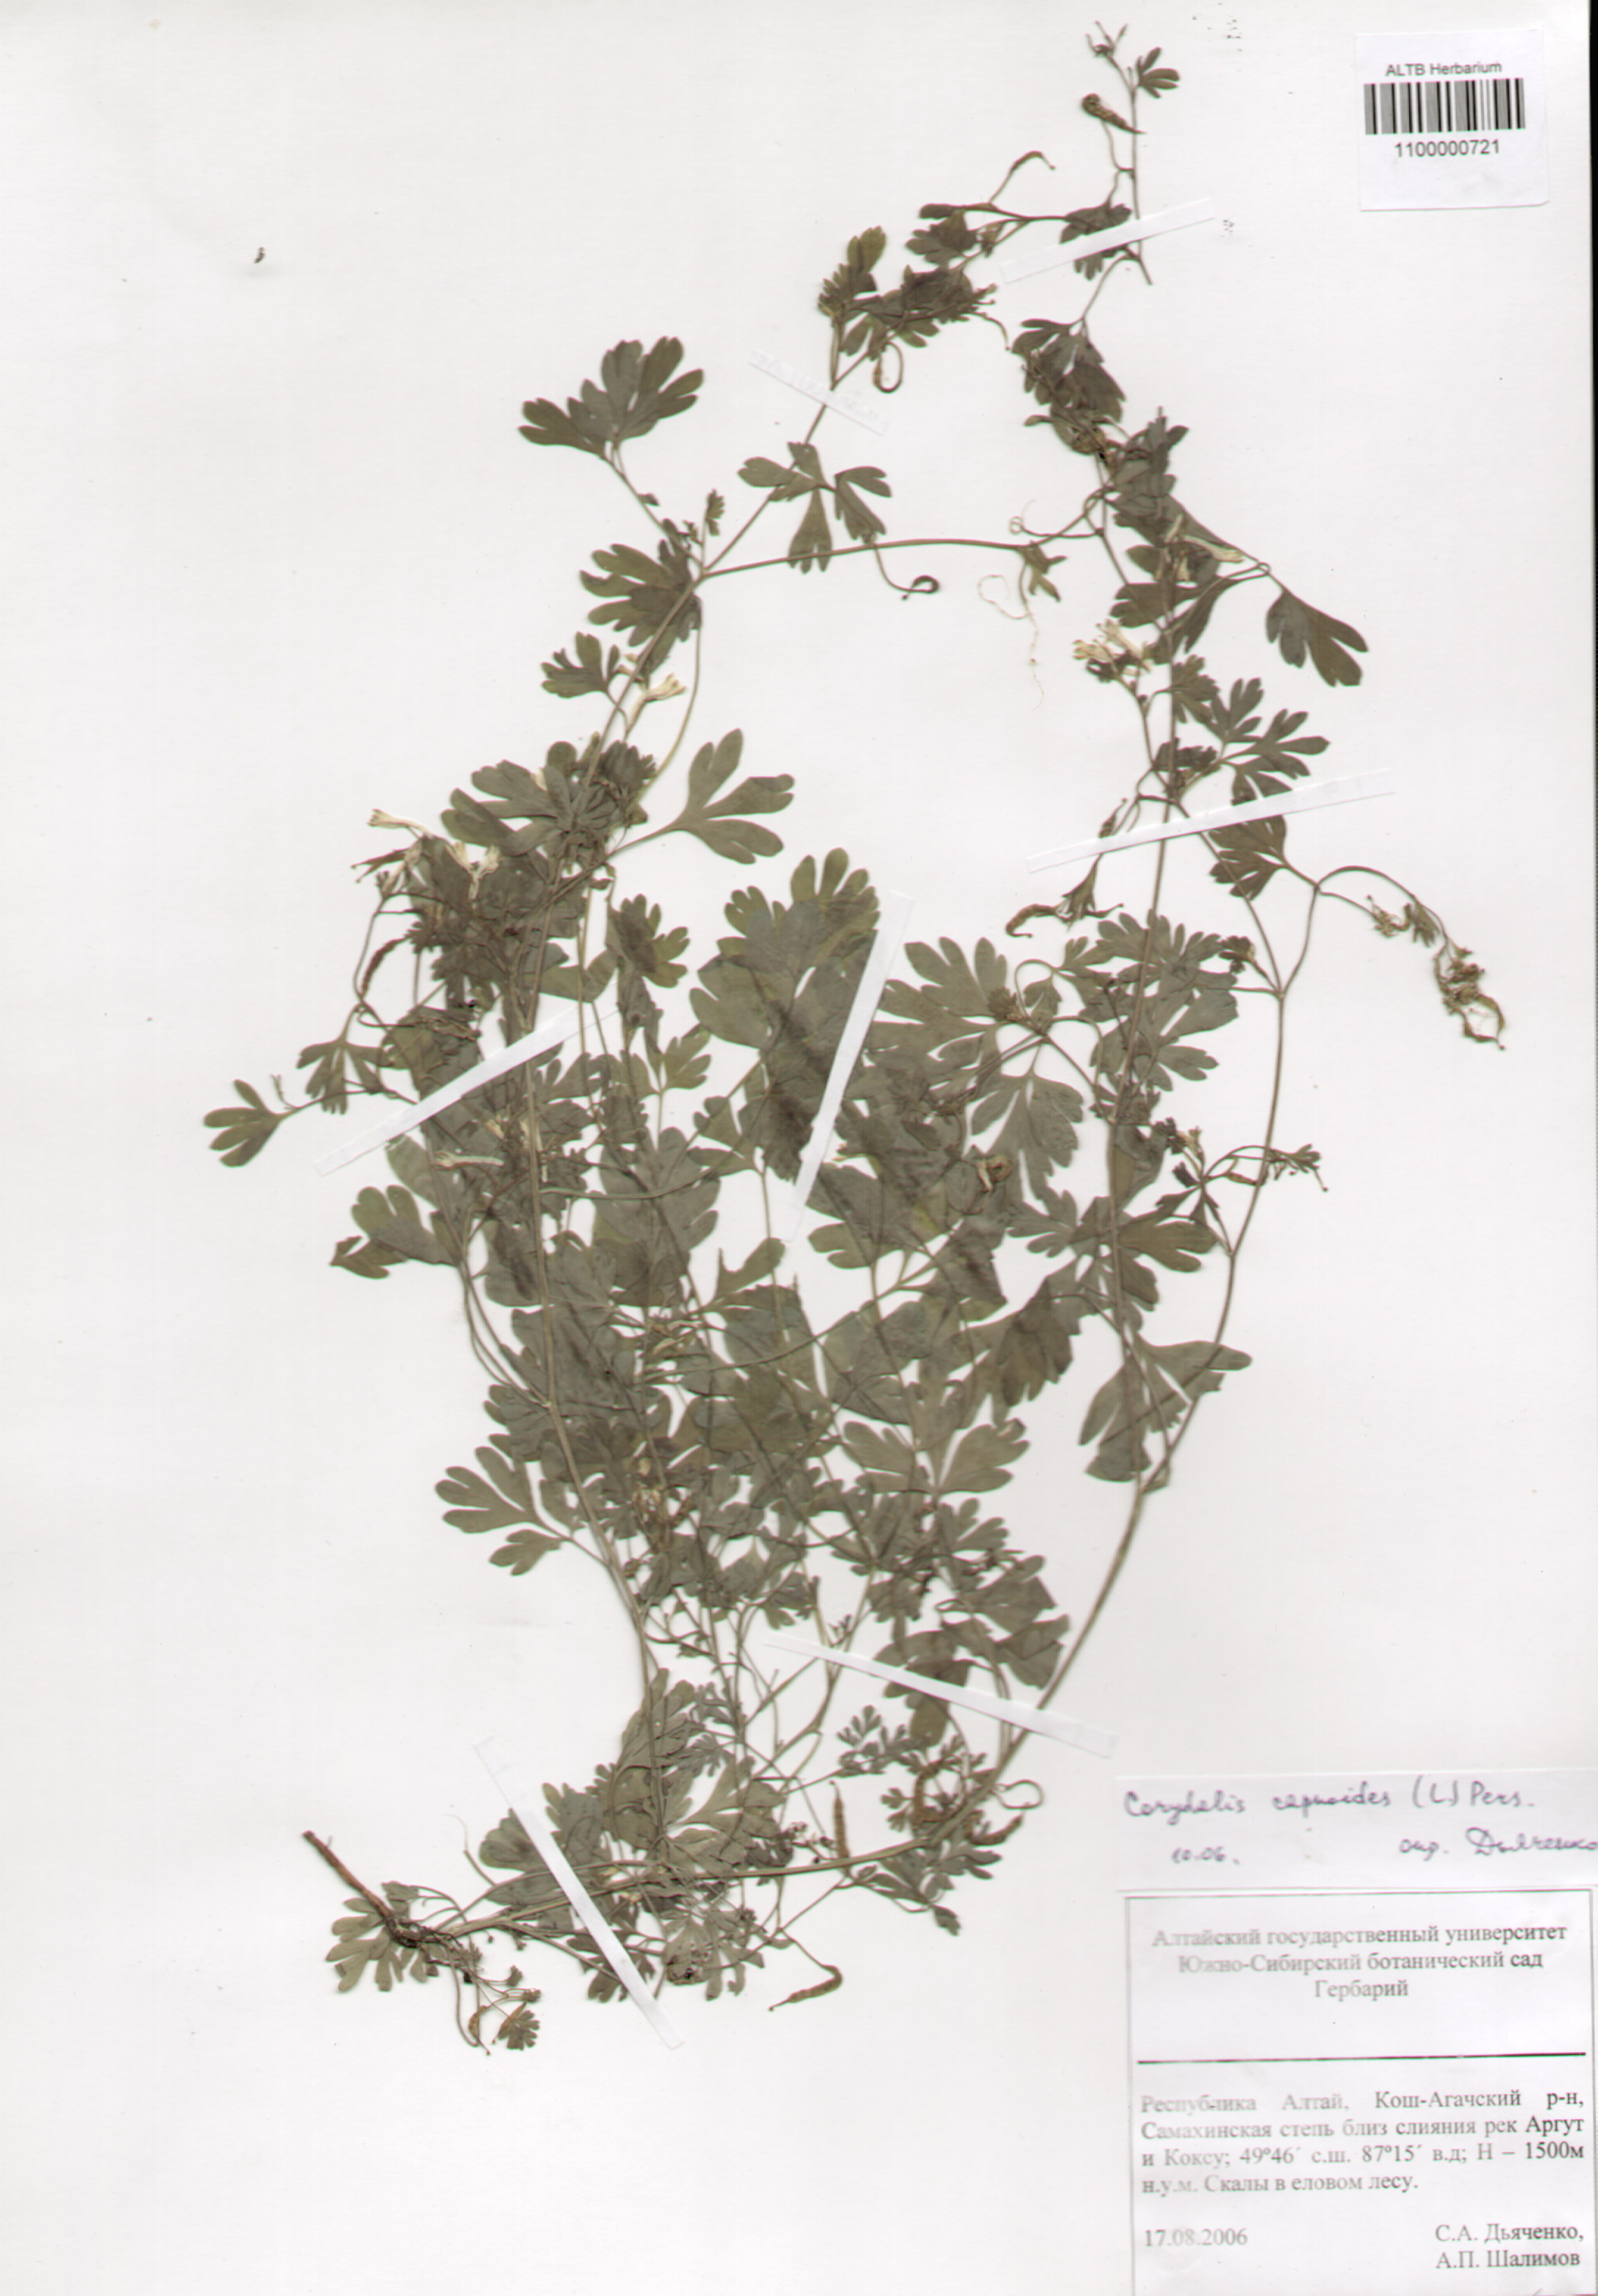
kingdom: Plantae
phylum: Tracheophyta
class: Magnoliopsida
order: Ranunculales
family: Papaveraceae
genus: Corydalis
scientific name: Corydalis capnoides
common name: Beaked corydalis
